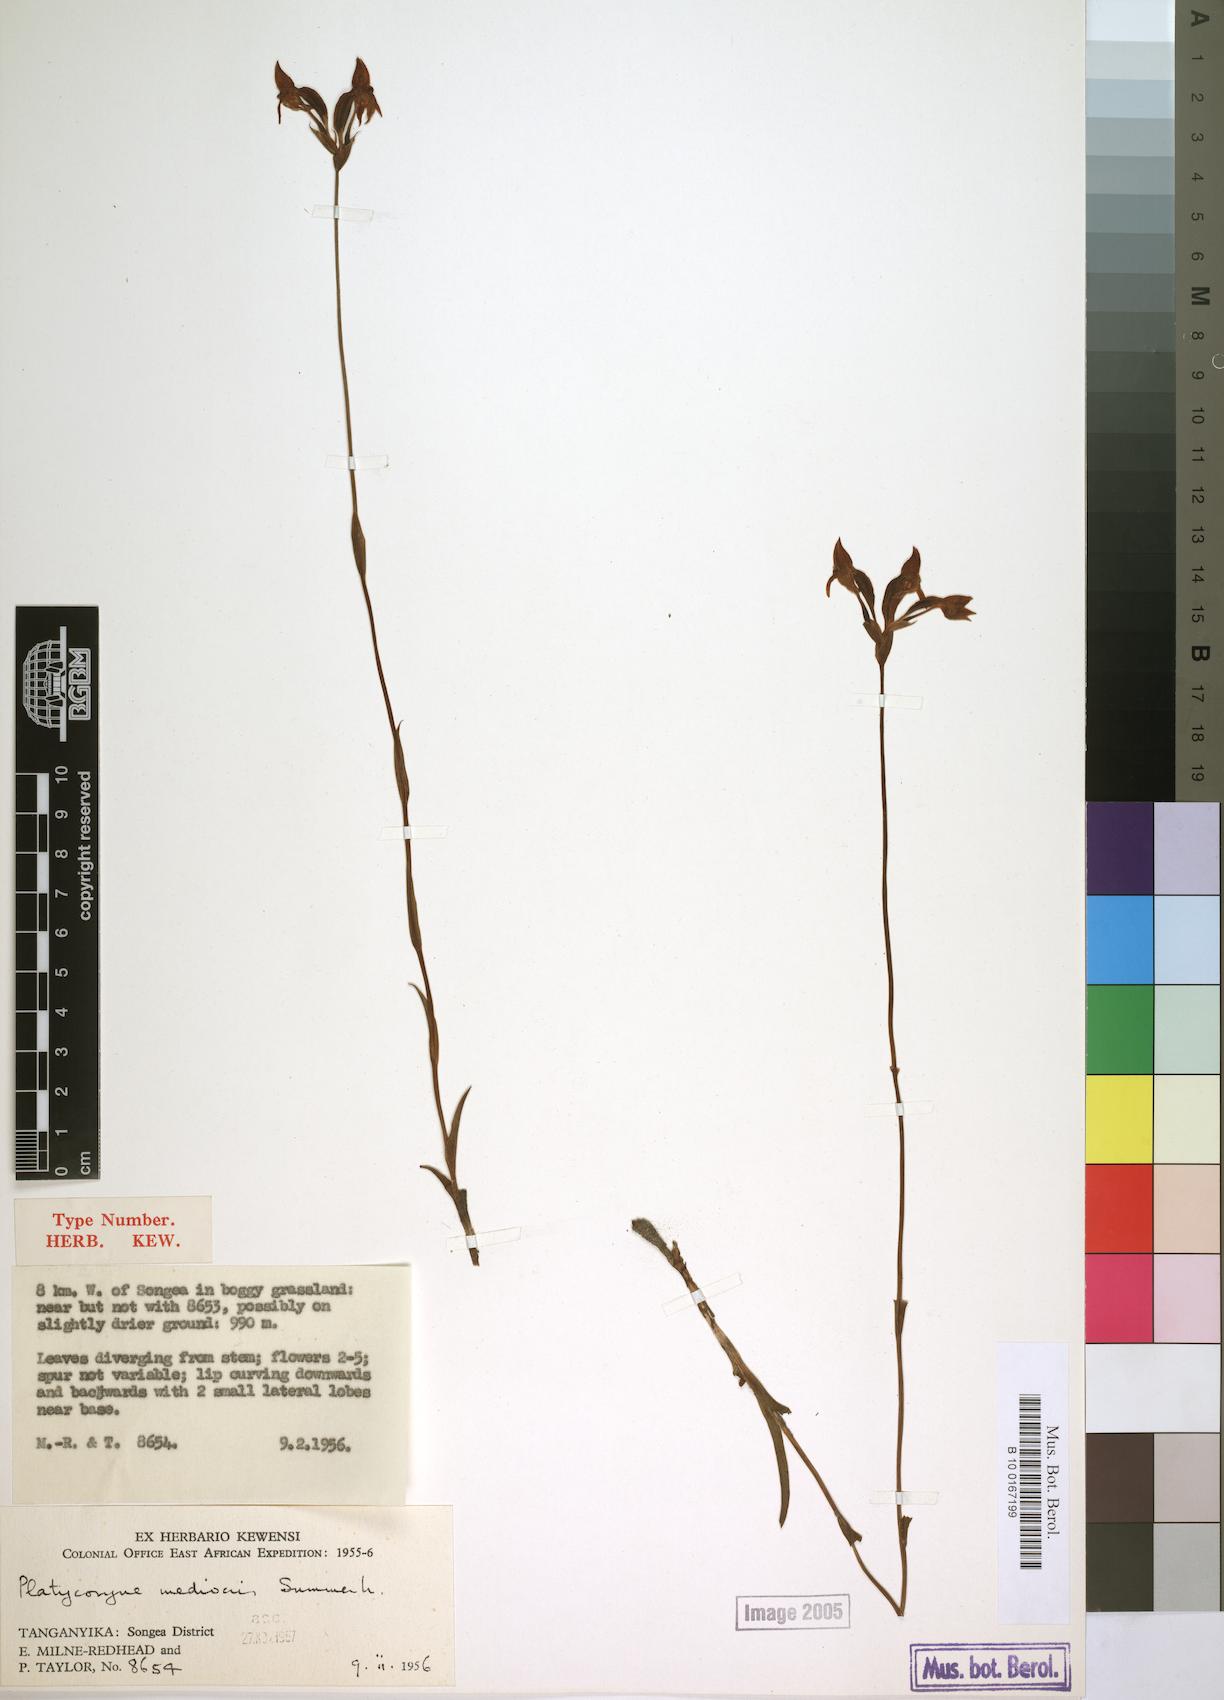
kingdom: Plantae
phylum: Tracheophyta
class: Liliopsida
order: Asparagales
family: Orchidaceae
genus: Platycoryne
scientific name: Platycoryne mediocris
